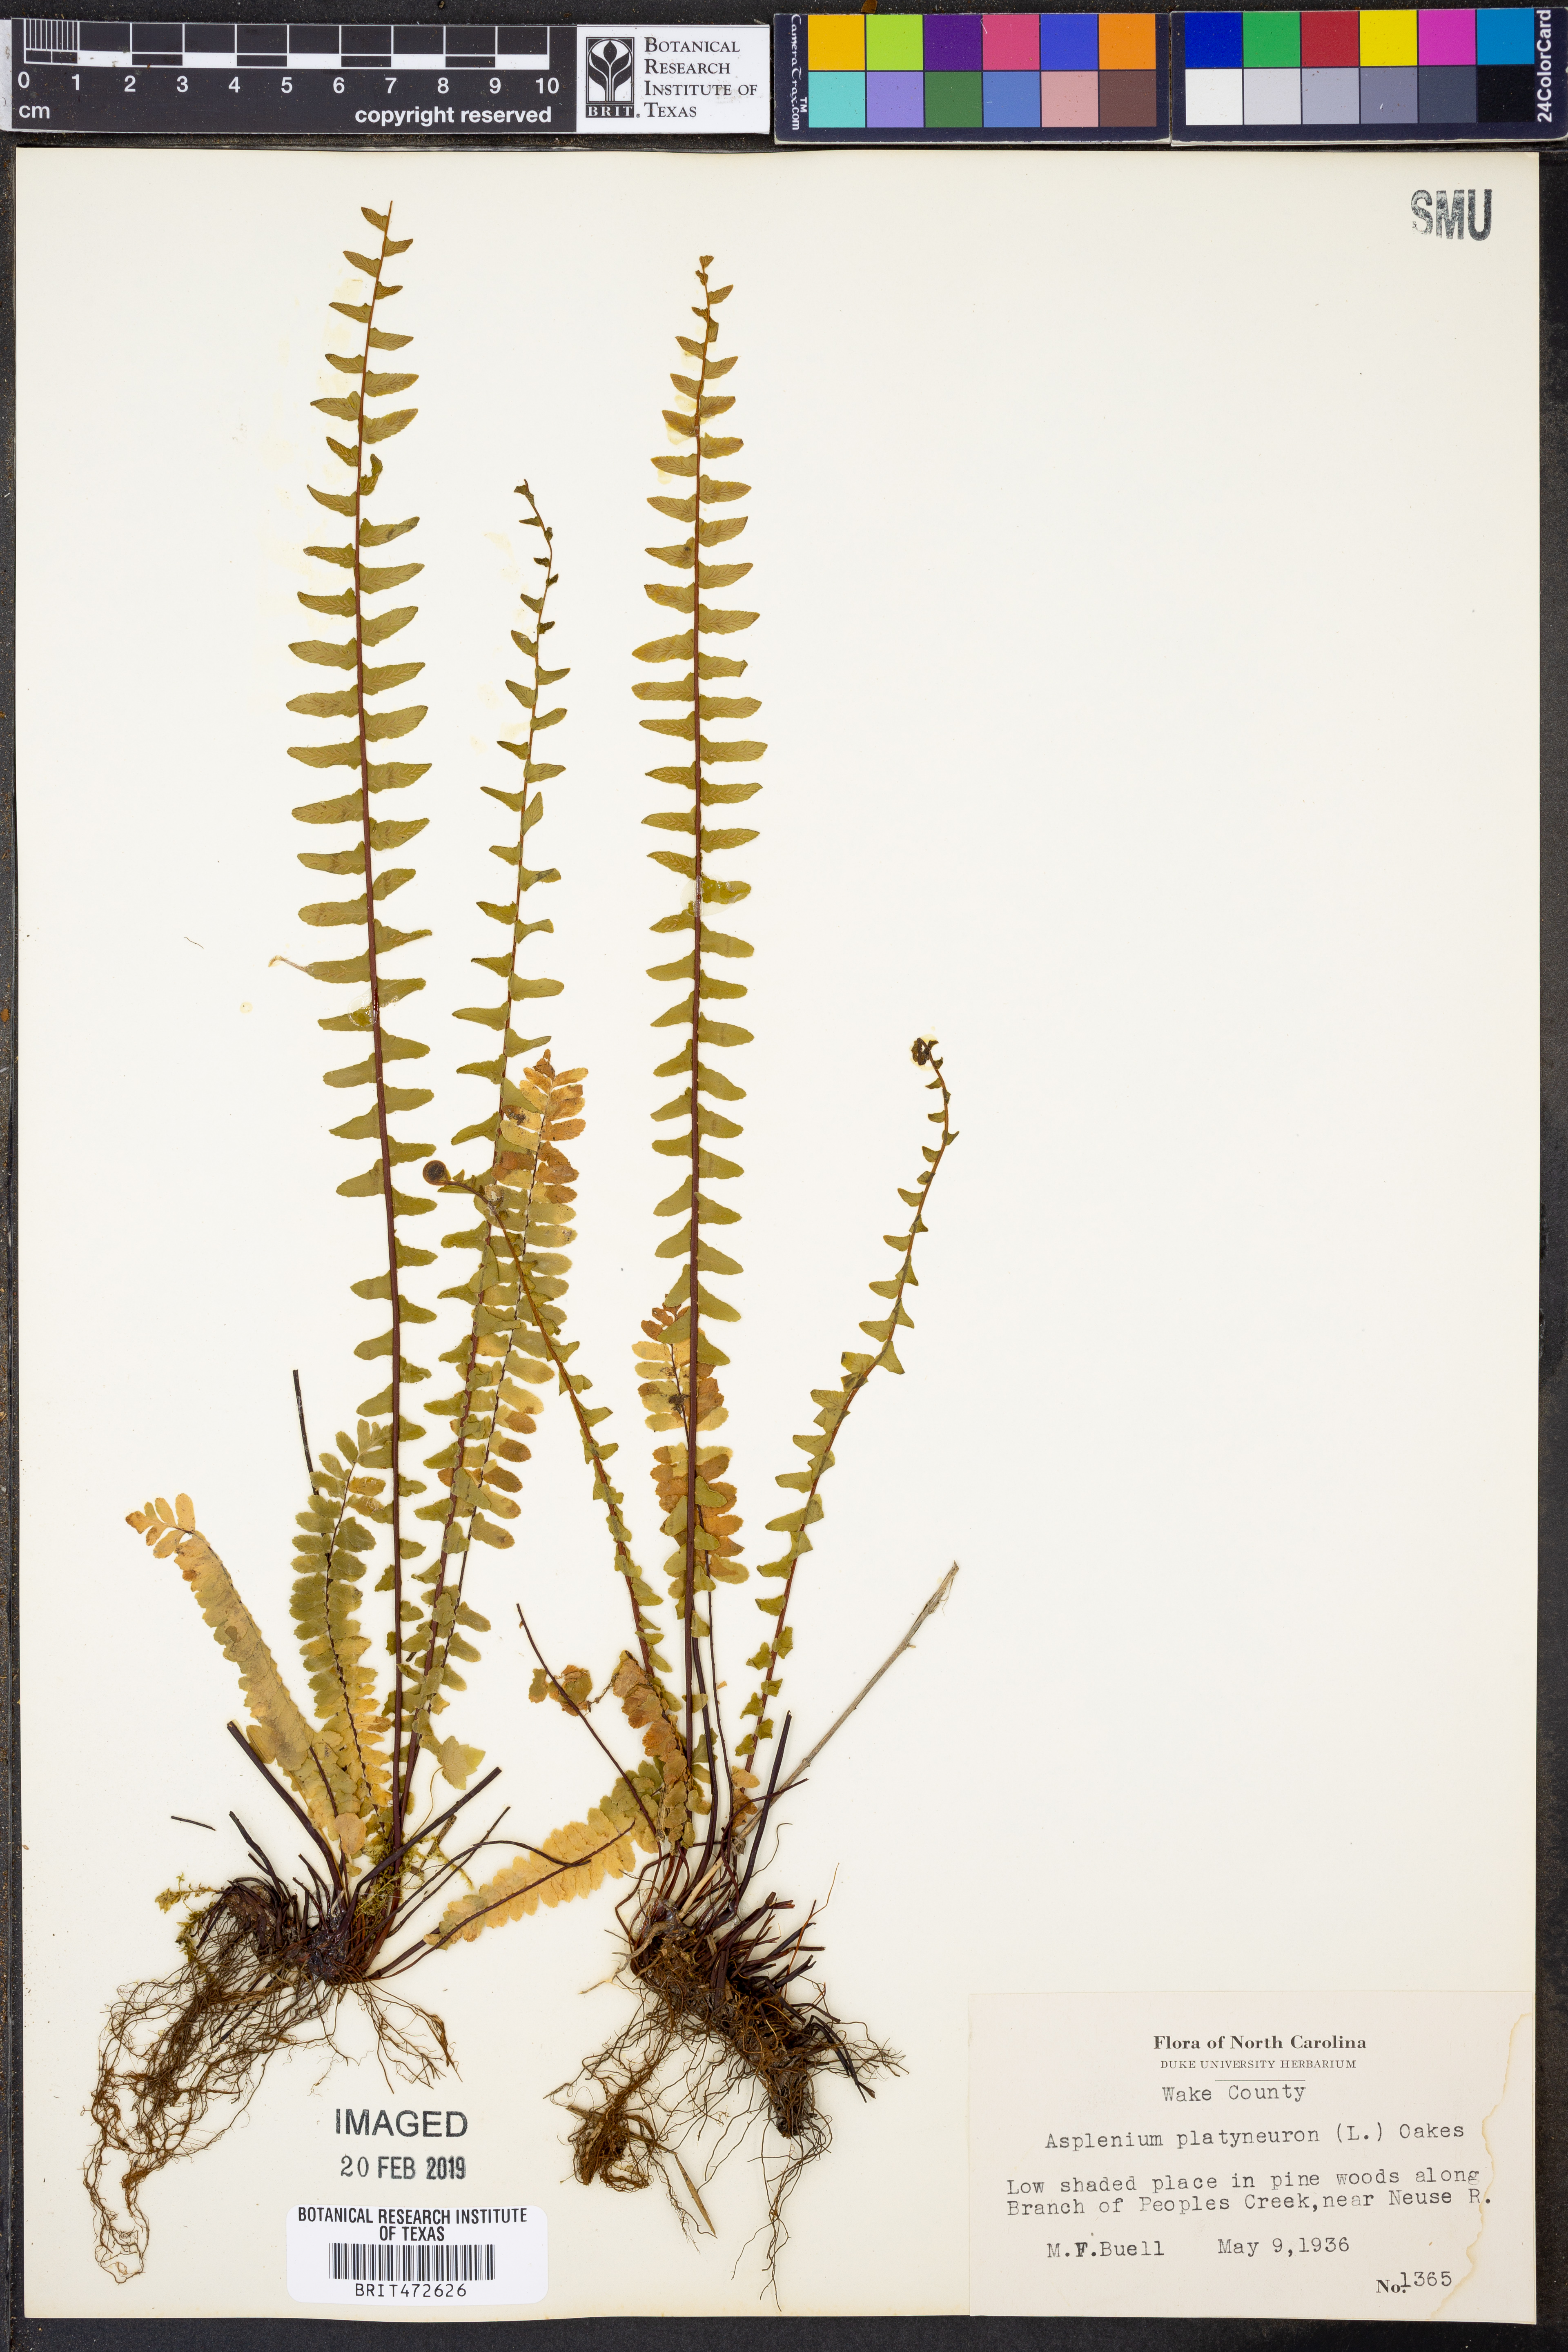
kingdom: Plantae
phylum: Tracheophyta
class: Polypodiopsida
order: Polypodiales
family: Aspleniaceae
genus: Asplenium
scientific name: Asplenium platyneuron
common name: Ebony spleenwort
